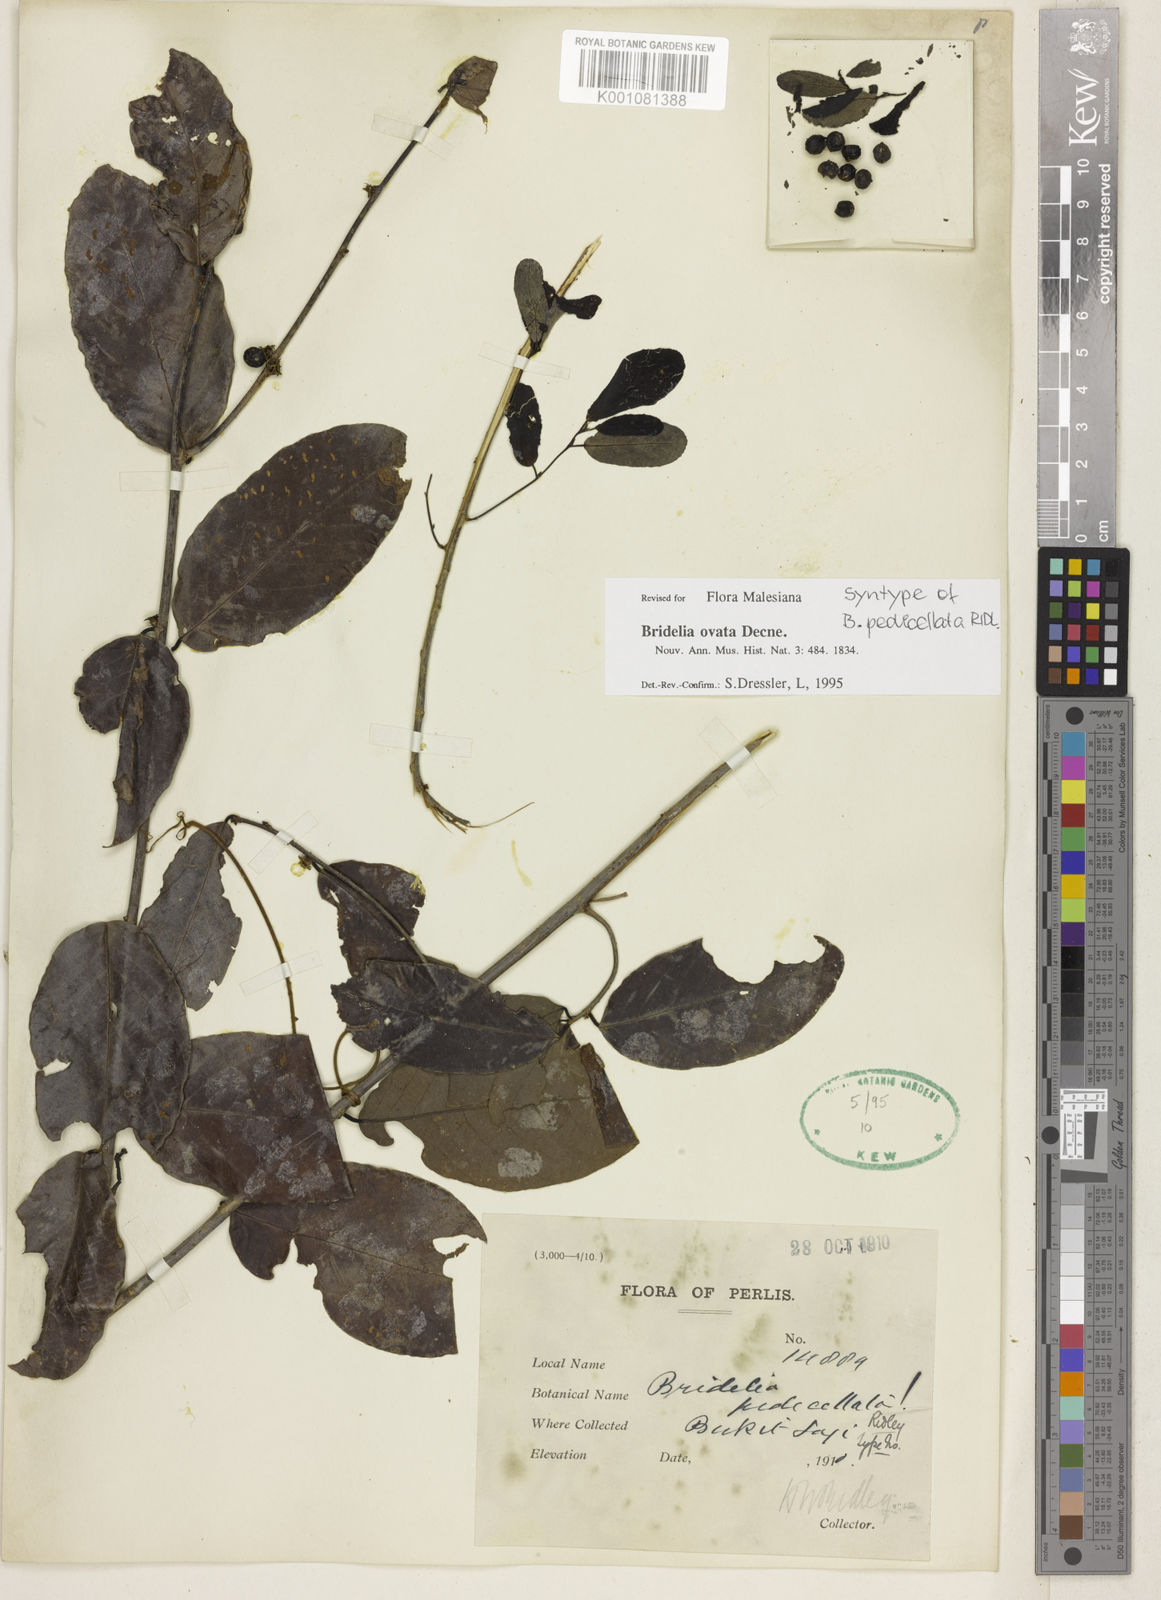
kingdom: Plantae
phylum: Tracheophyta
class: Magnoliopsida
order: Malpighiales
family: Phyllanthaceae
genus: Bridelia
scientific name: Bridelia ovata
